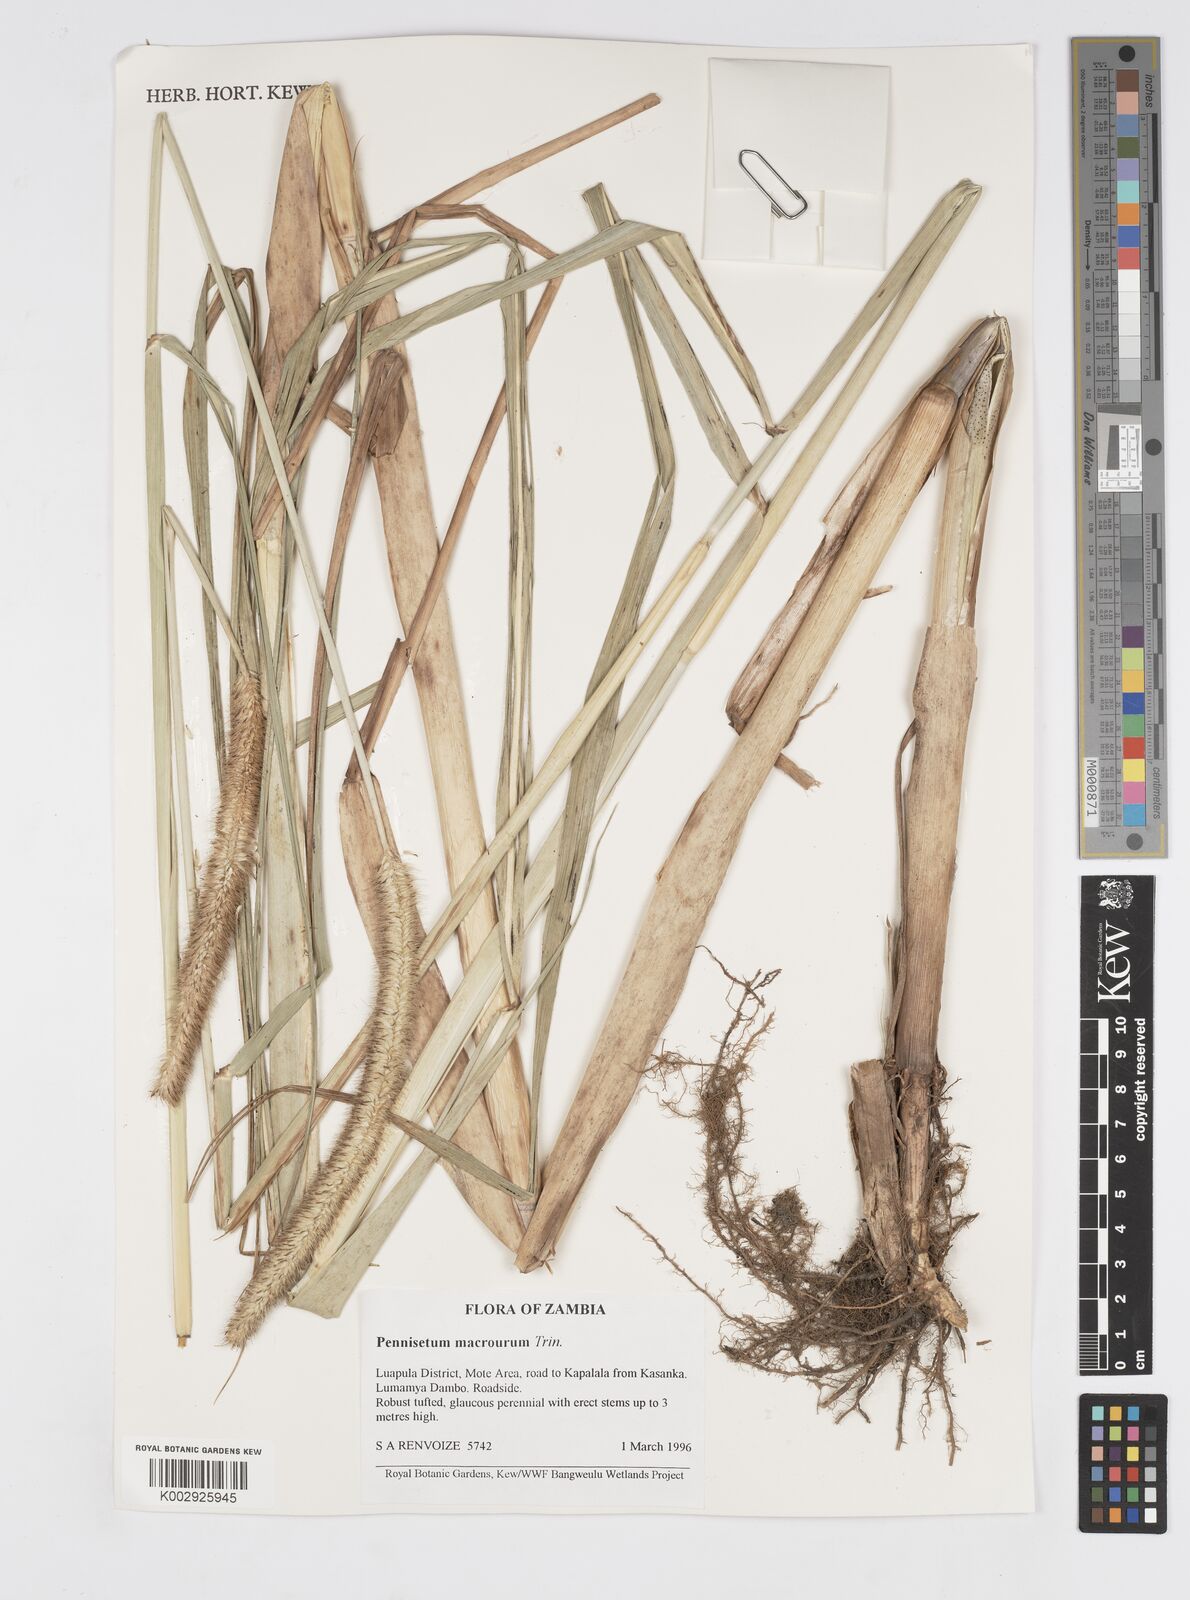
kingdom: Plantae
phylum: Tracheophyta
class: Liliopsida
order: Poales
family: Poaceae
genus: Cenchrus
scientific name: Cenchrus caudatus
